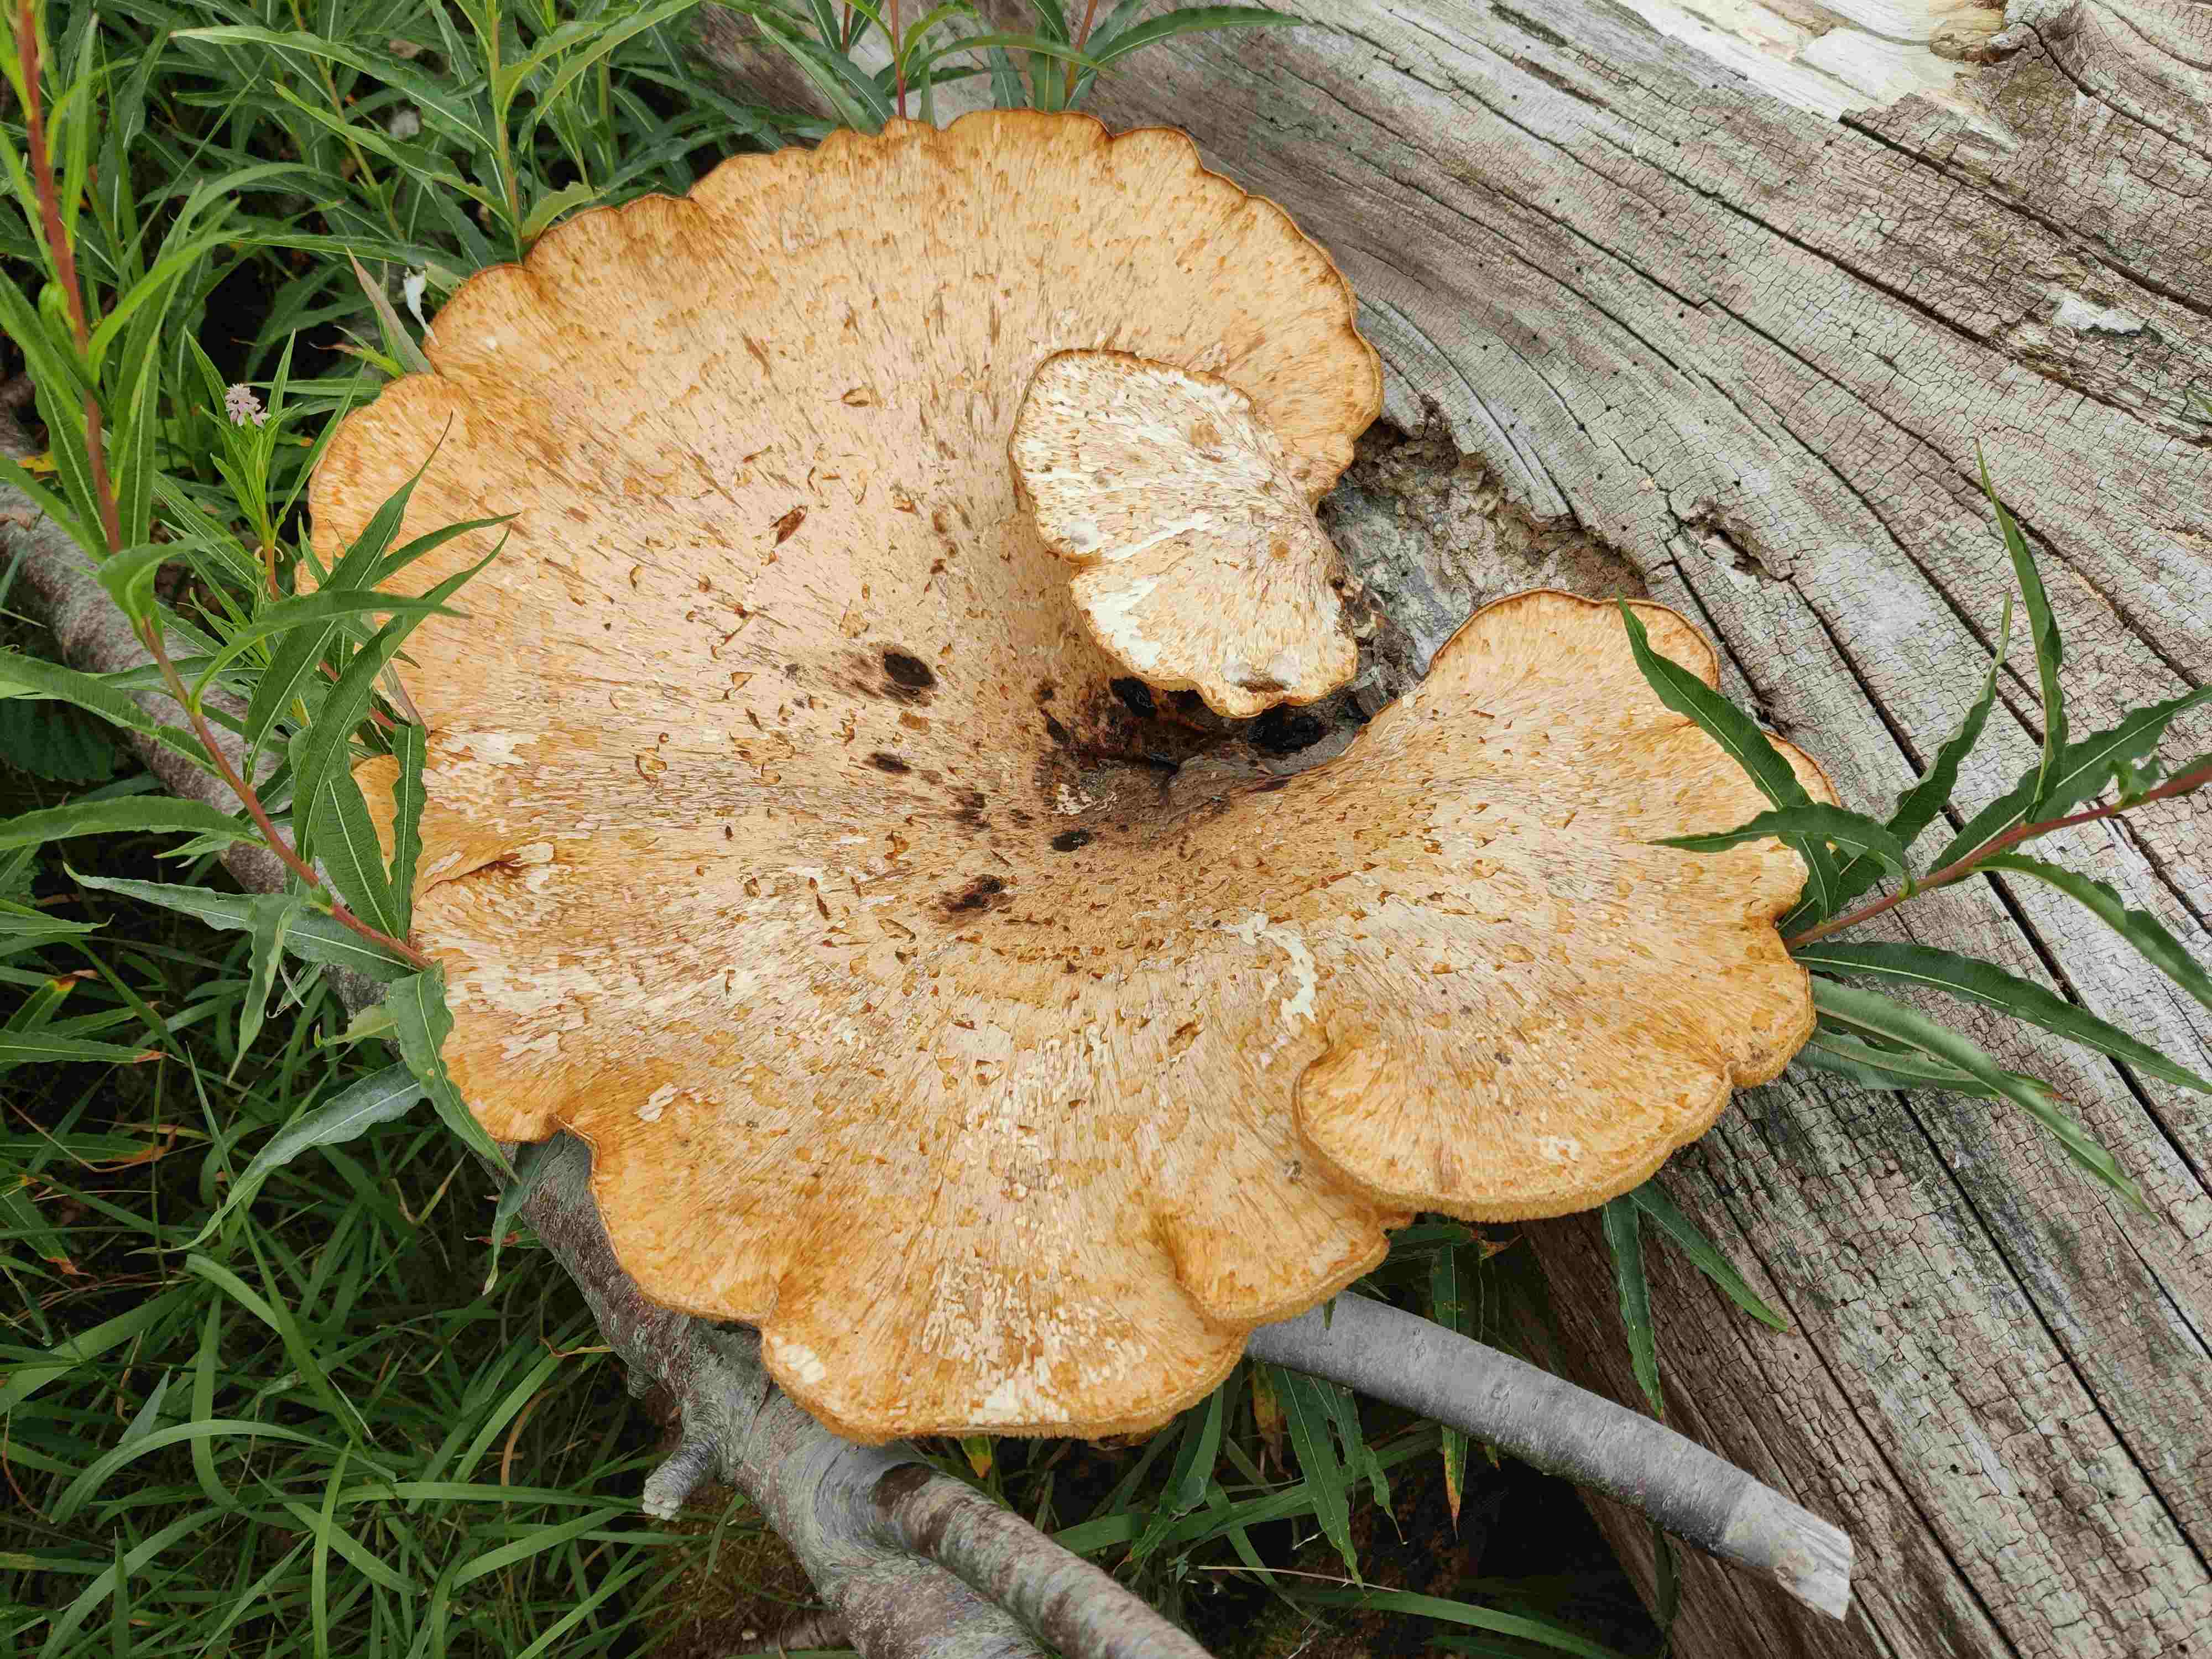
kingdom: Fungi
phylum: Basidiomycota
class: Agaricomycetes
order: Polyporales
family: Polyporaceae
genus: Cerioporus
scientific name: Cerioporus squamosus
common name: skællet stilkporesvamp
